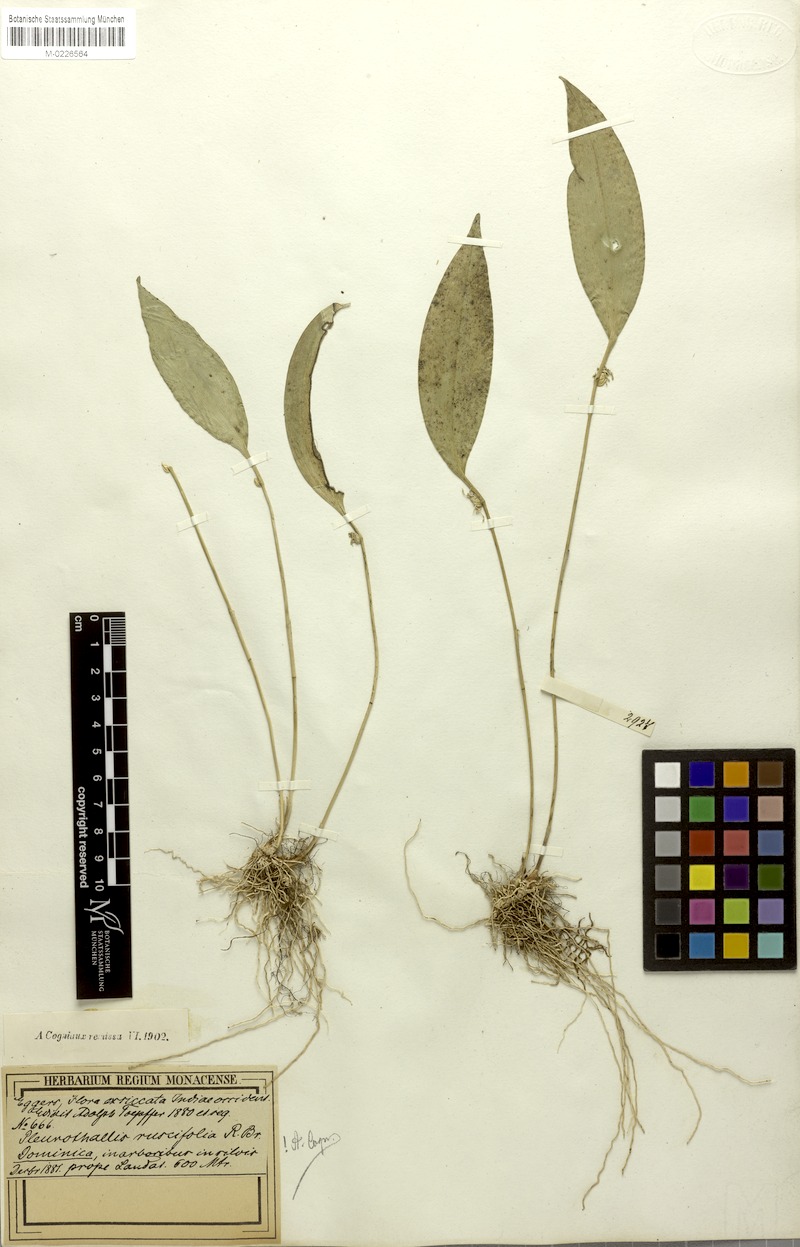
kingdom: Plantae
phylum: Tracheophyta
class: Liliopsida
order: Asparagales
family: Orchidaceae
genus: Pleurothallis
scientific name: Pleurothallis ruscifolia
